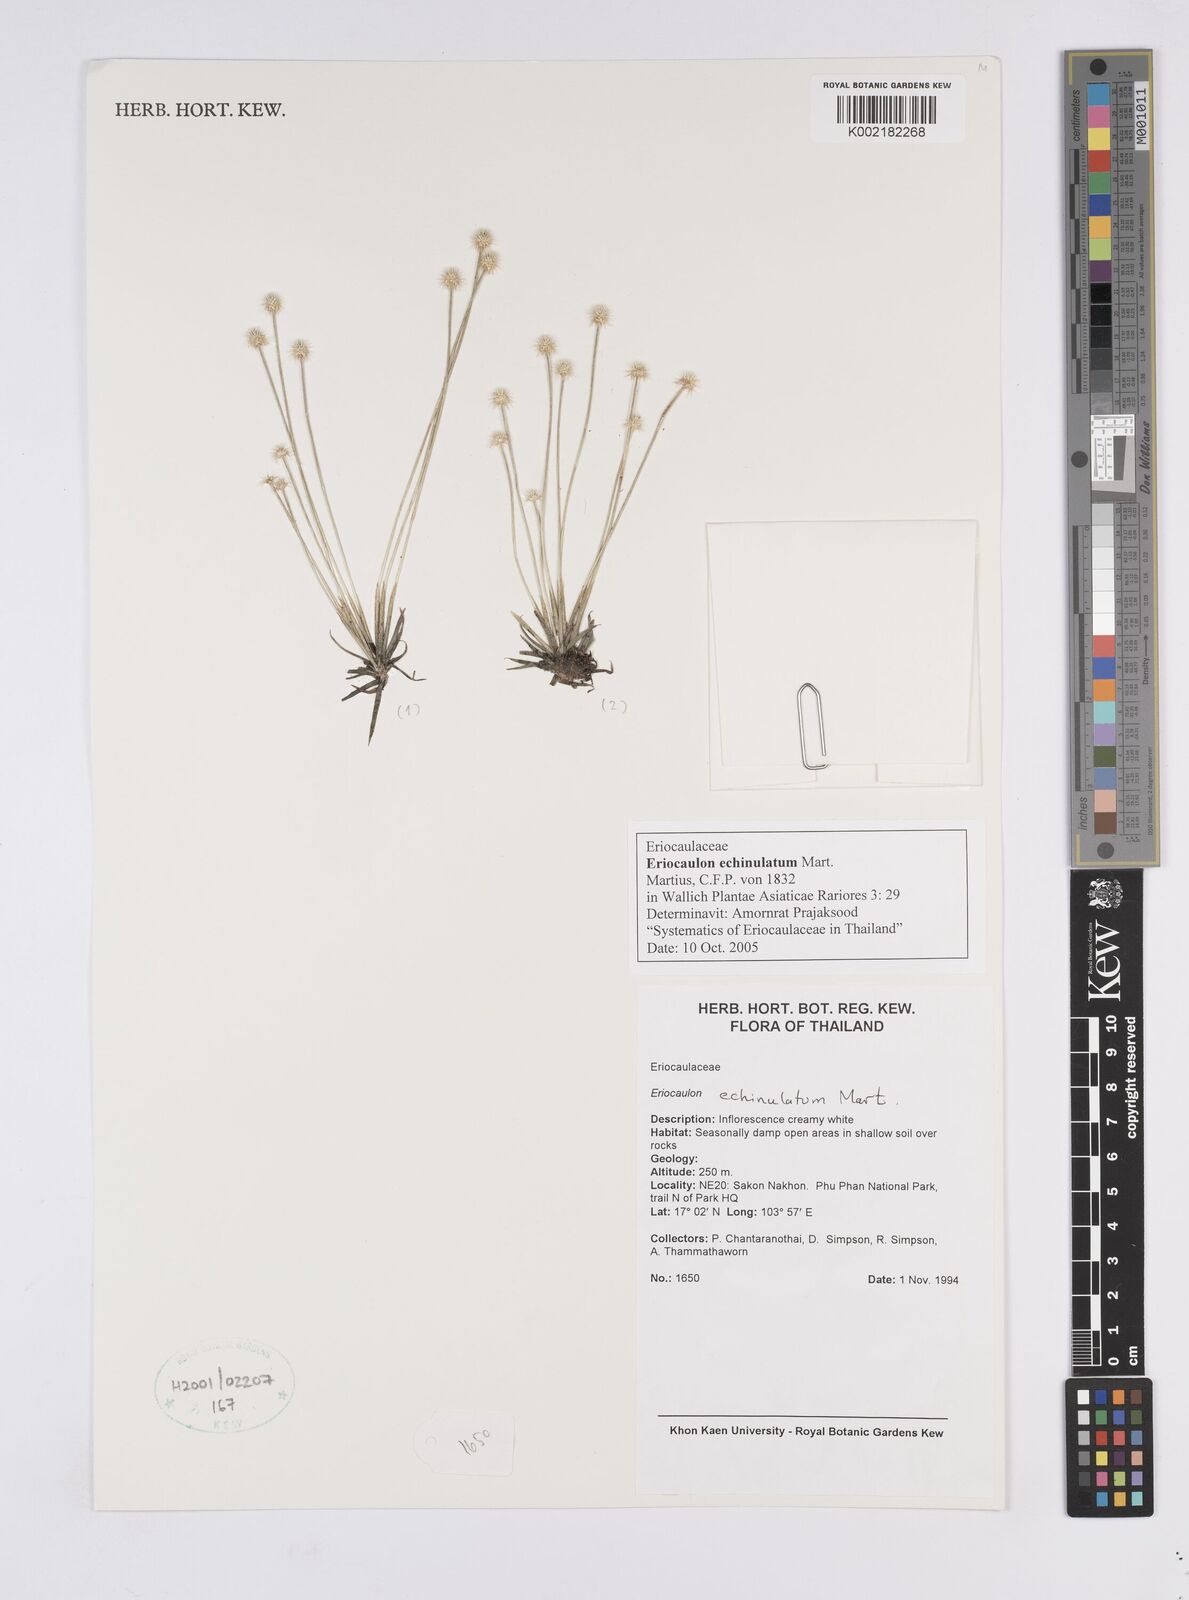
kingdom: Plantae
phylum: Tracheophyta
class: Liliopsida
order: Poales
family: Eriocaulaceae
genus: Eriocaulon
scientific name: Eriocaulon echinulatum
